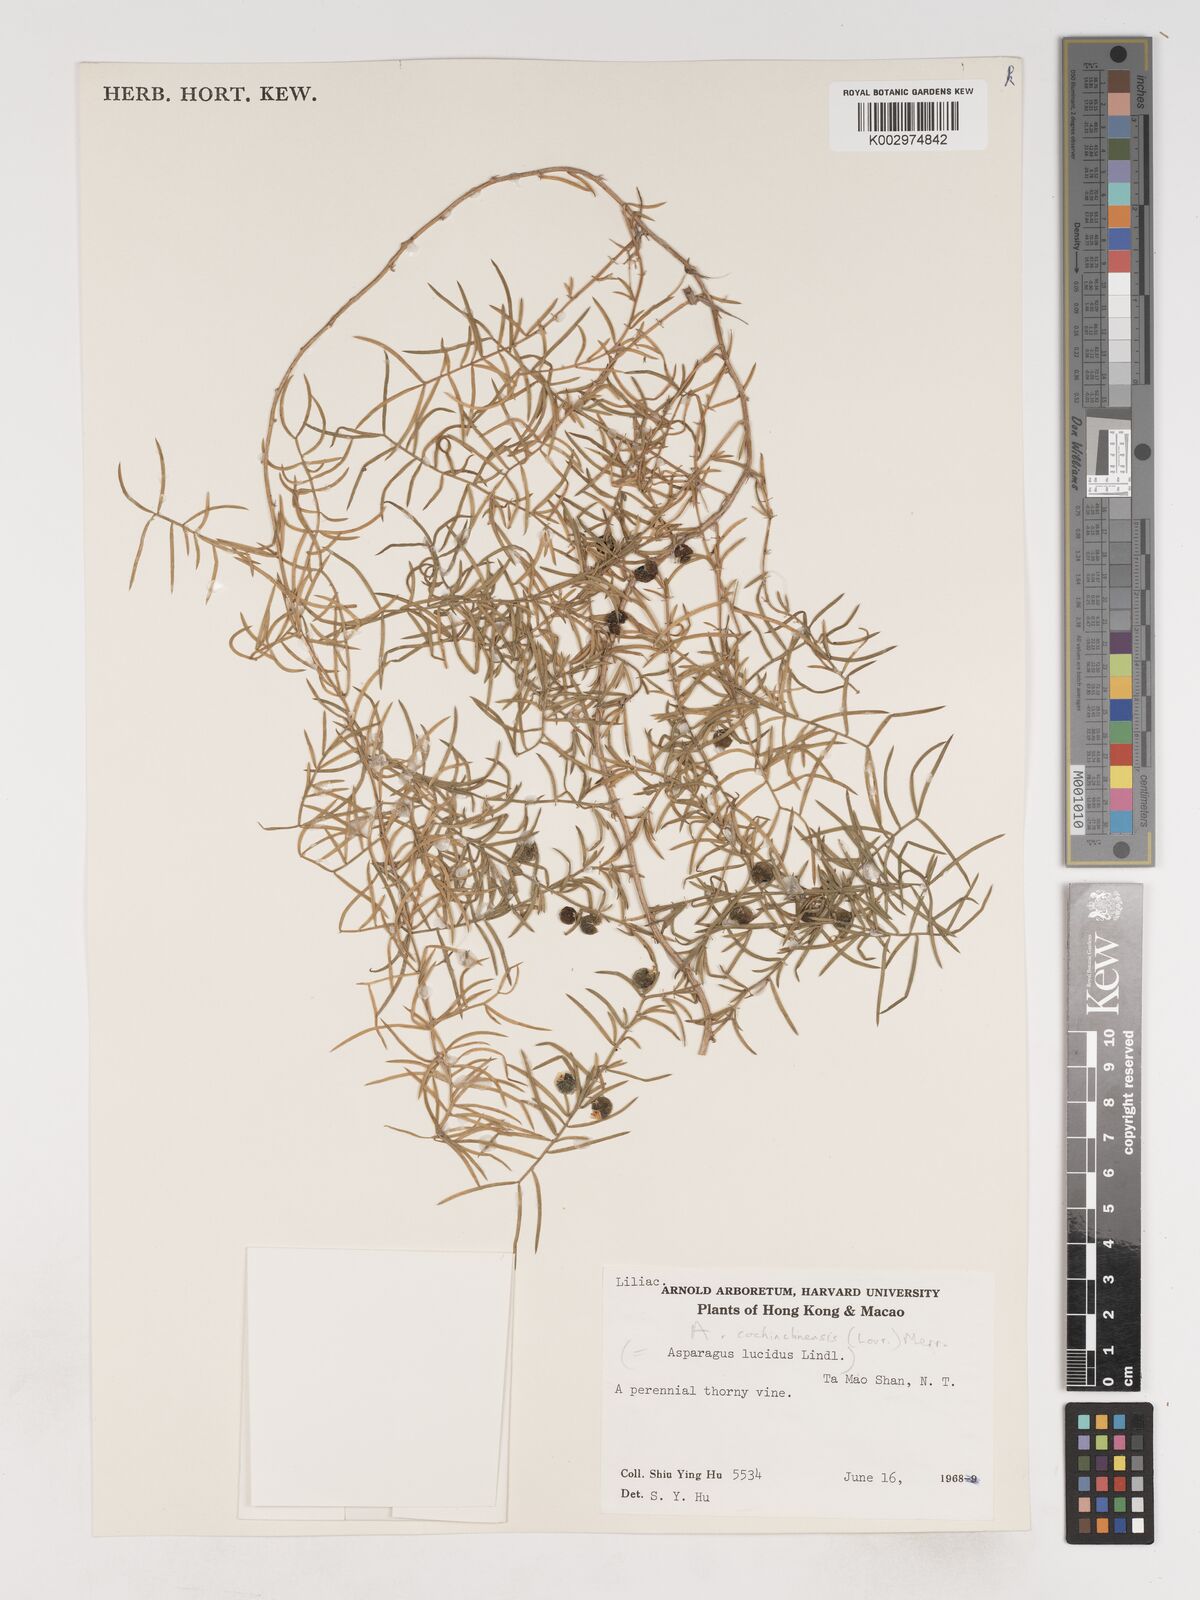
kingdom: Plantae
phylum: Tracheophyta
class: Liliopsida
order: Asparagales
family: Asparagaceae
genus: Asparagus
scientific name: Asparagus cochinchinensis
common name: Chinese asparagus
